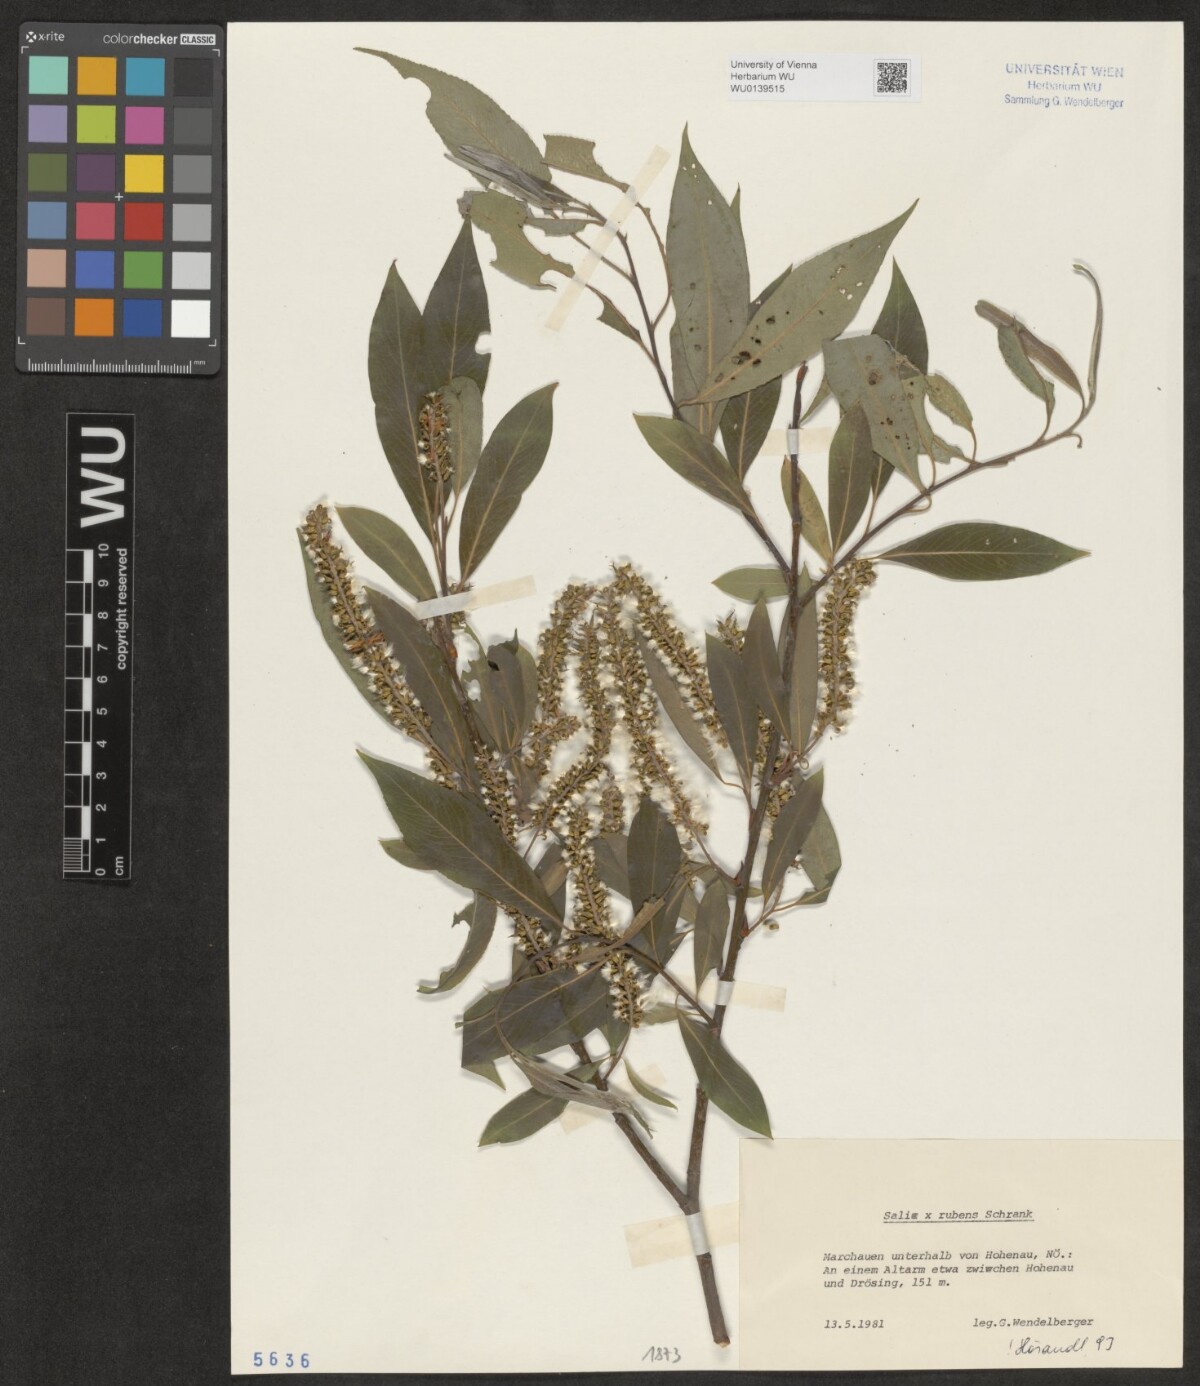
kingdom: Plantae
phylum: Tracheophyta
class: Magnoliopsida
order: Malpighiales
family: Salicaceae
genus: Salix
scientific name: Salix rubens
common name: Hybrid crack willow
